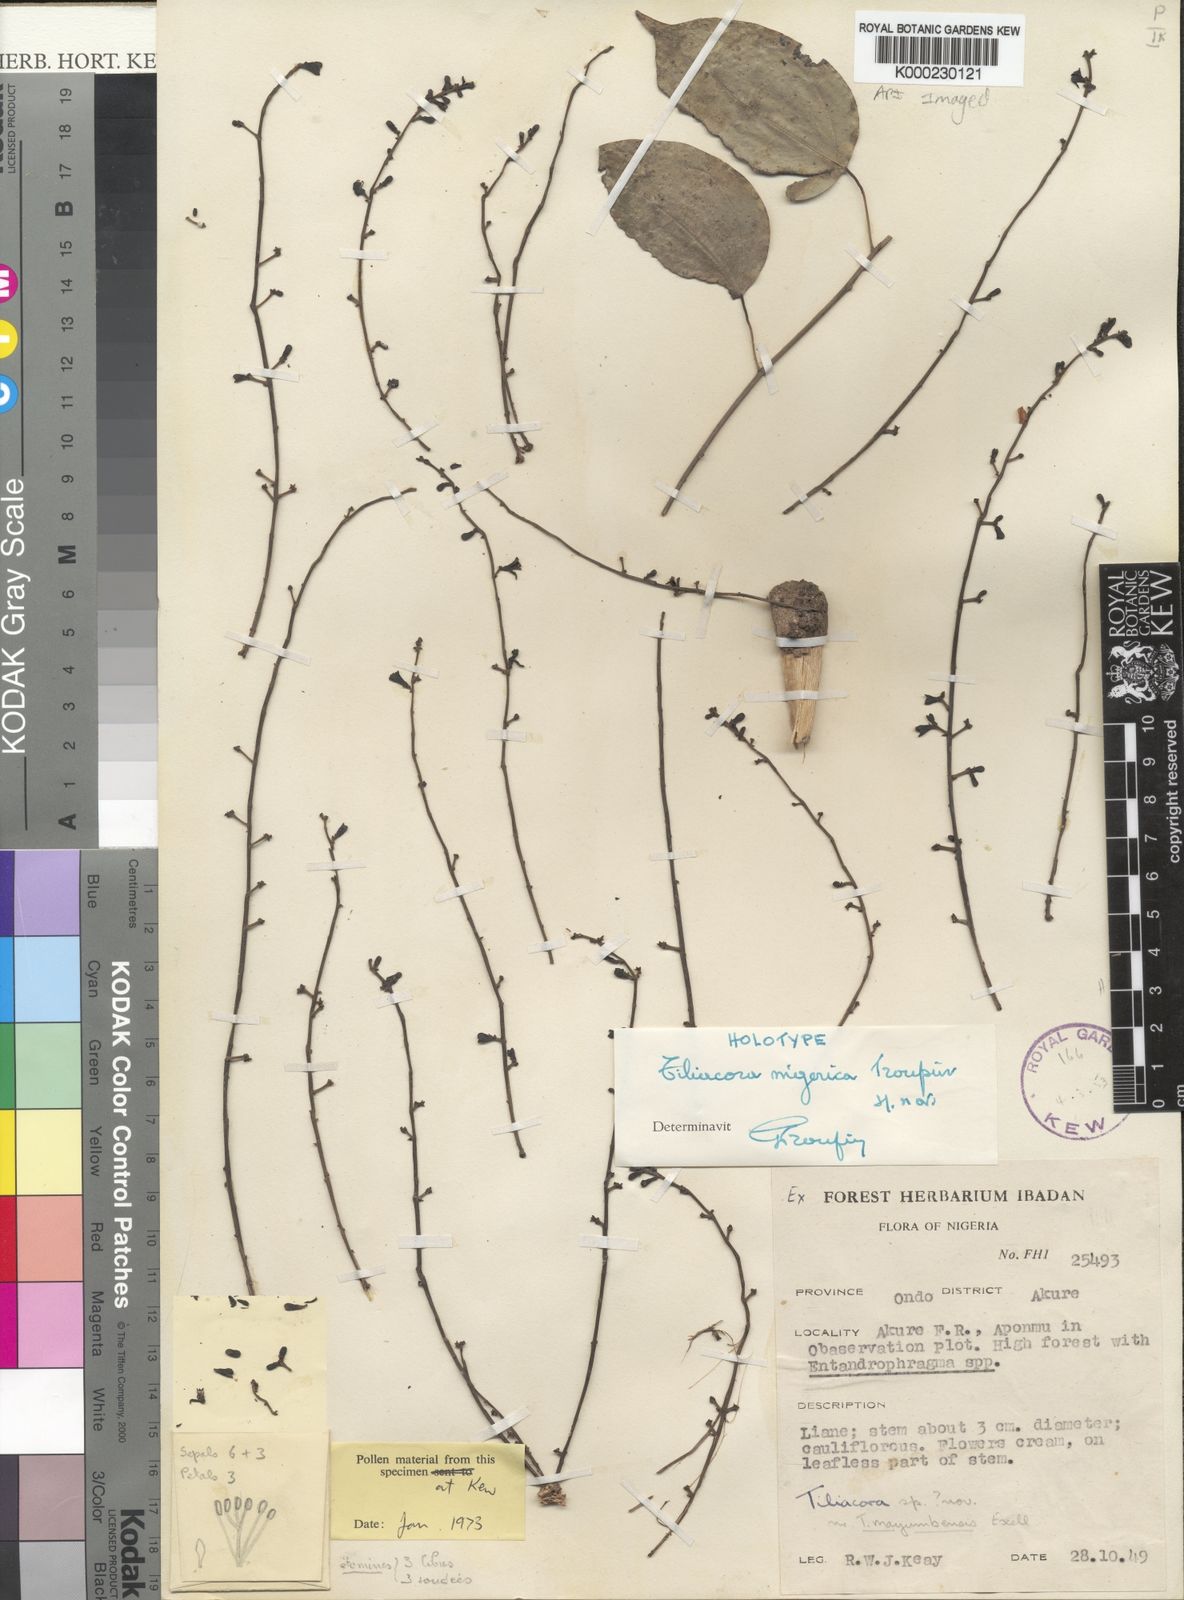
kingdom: Plantae
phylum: Tracheophyta
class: Magnoliopsida
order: Ranunculales
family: Menispermaceae
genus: Tiliacora
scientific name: Tiliacora nigerica
